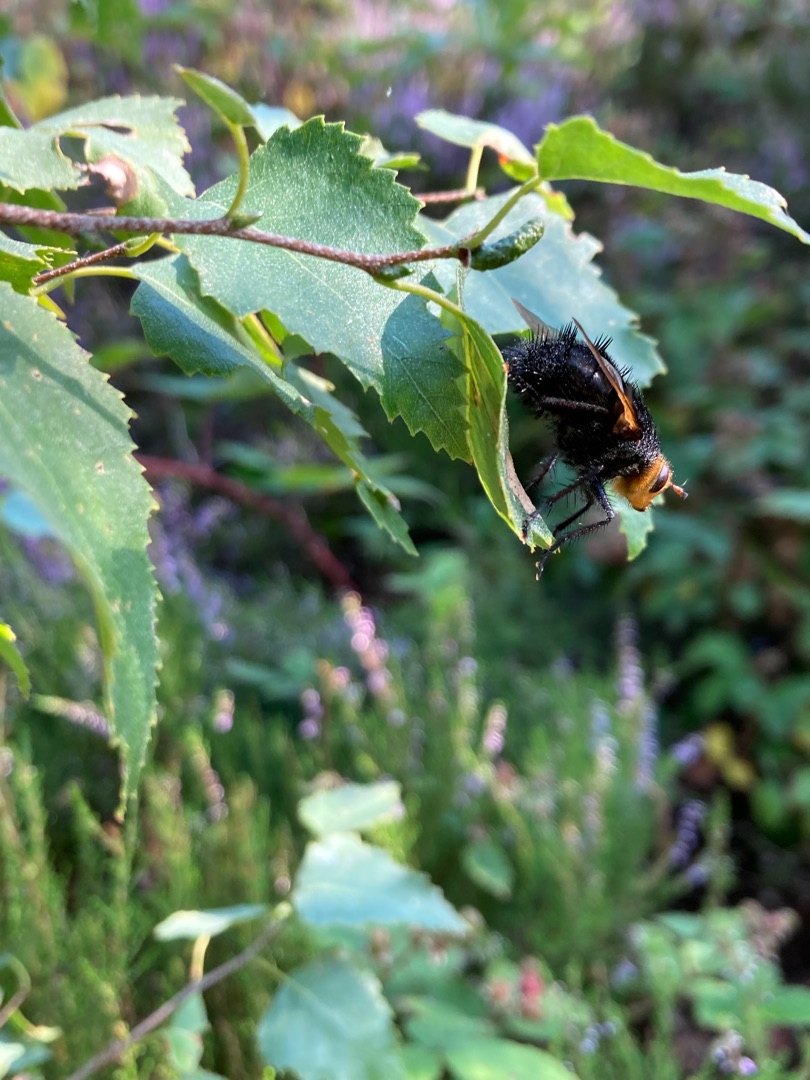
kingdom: Animalia
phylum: Arthropoda
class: Insecta
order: Diptera
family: Tachinidae
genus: Tachina
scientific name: Tachina grossa
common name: Kæmpefluen Harald
